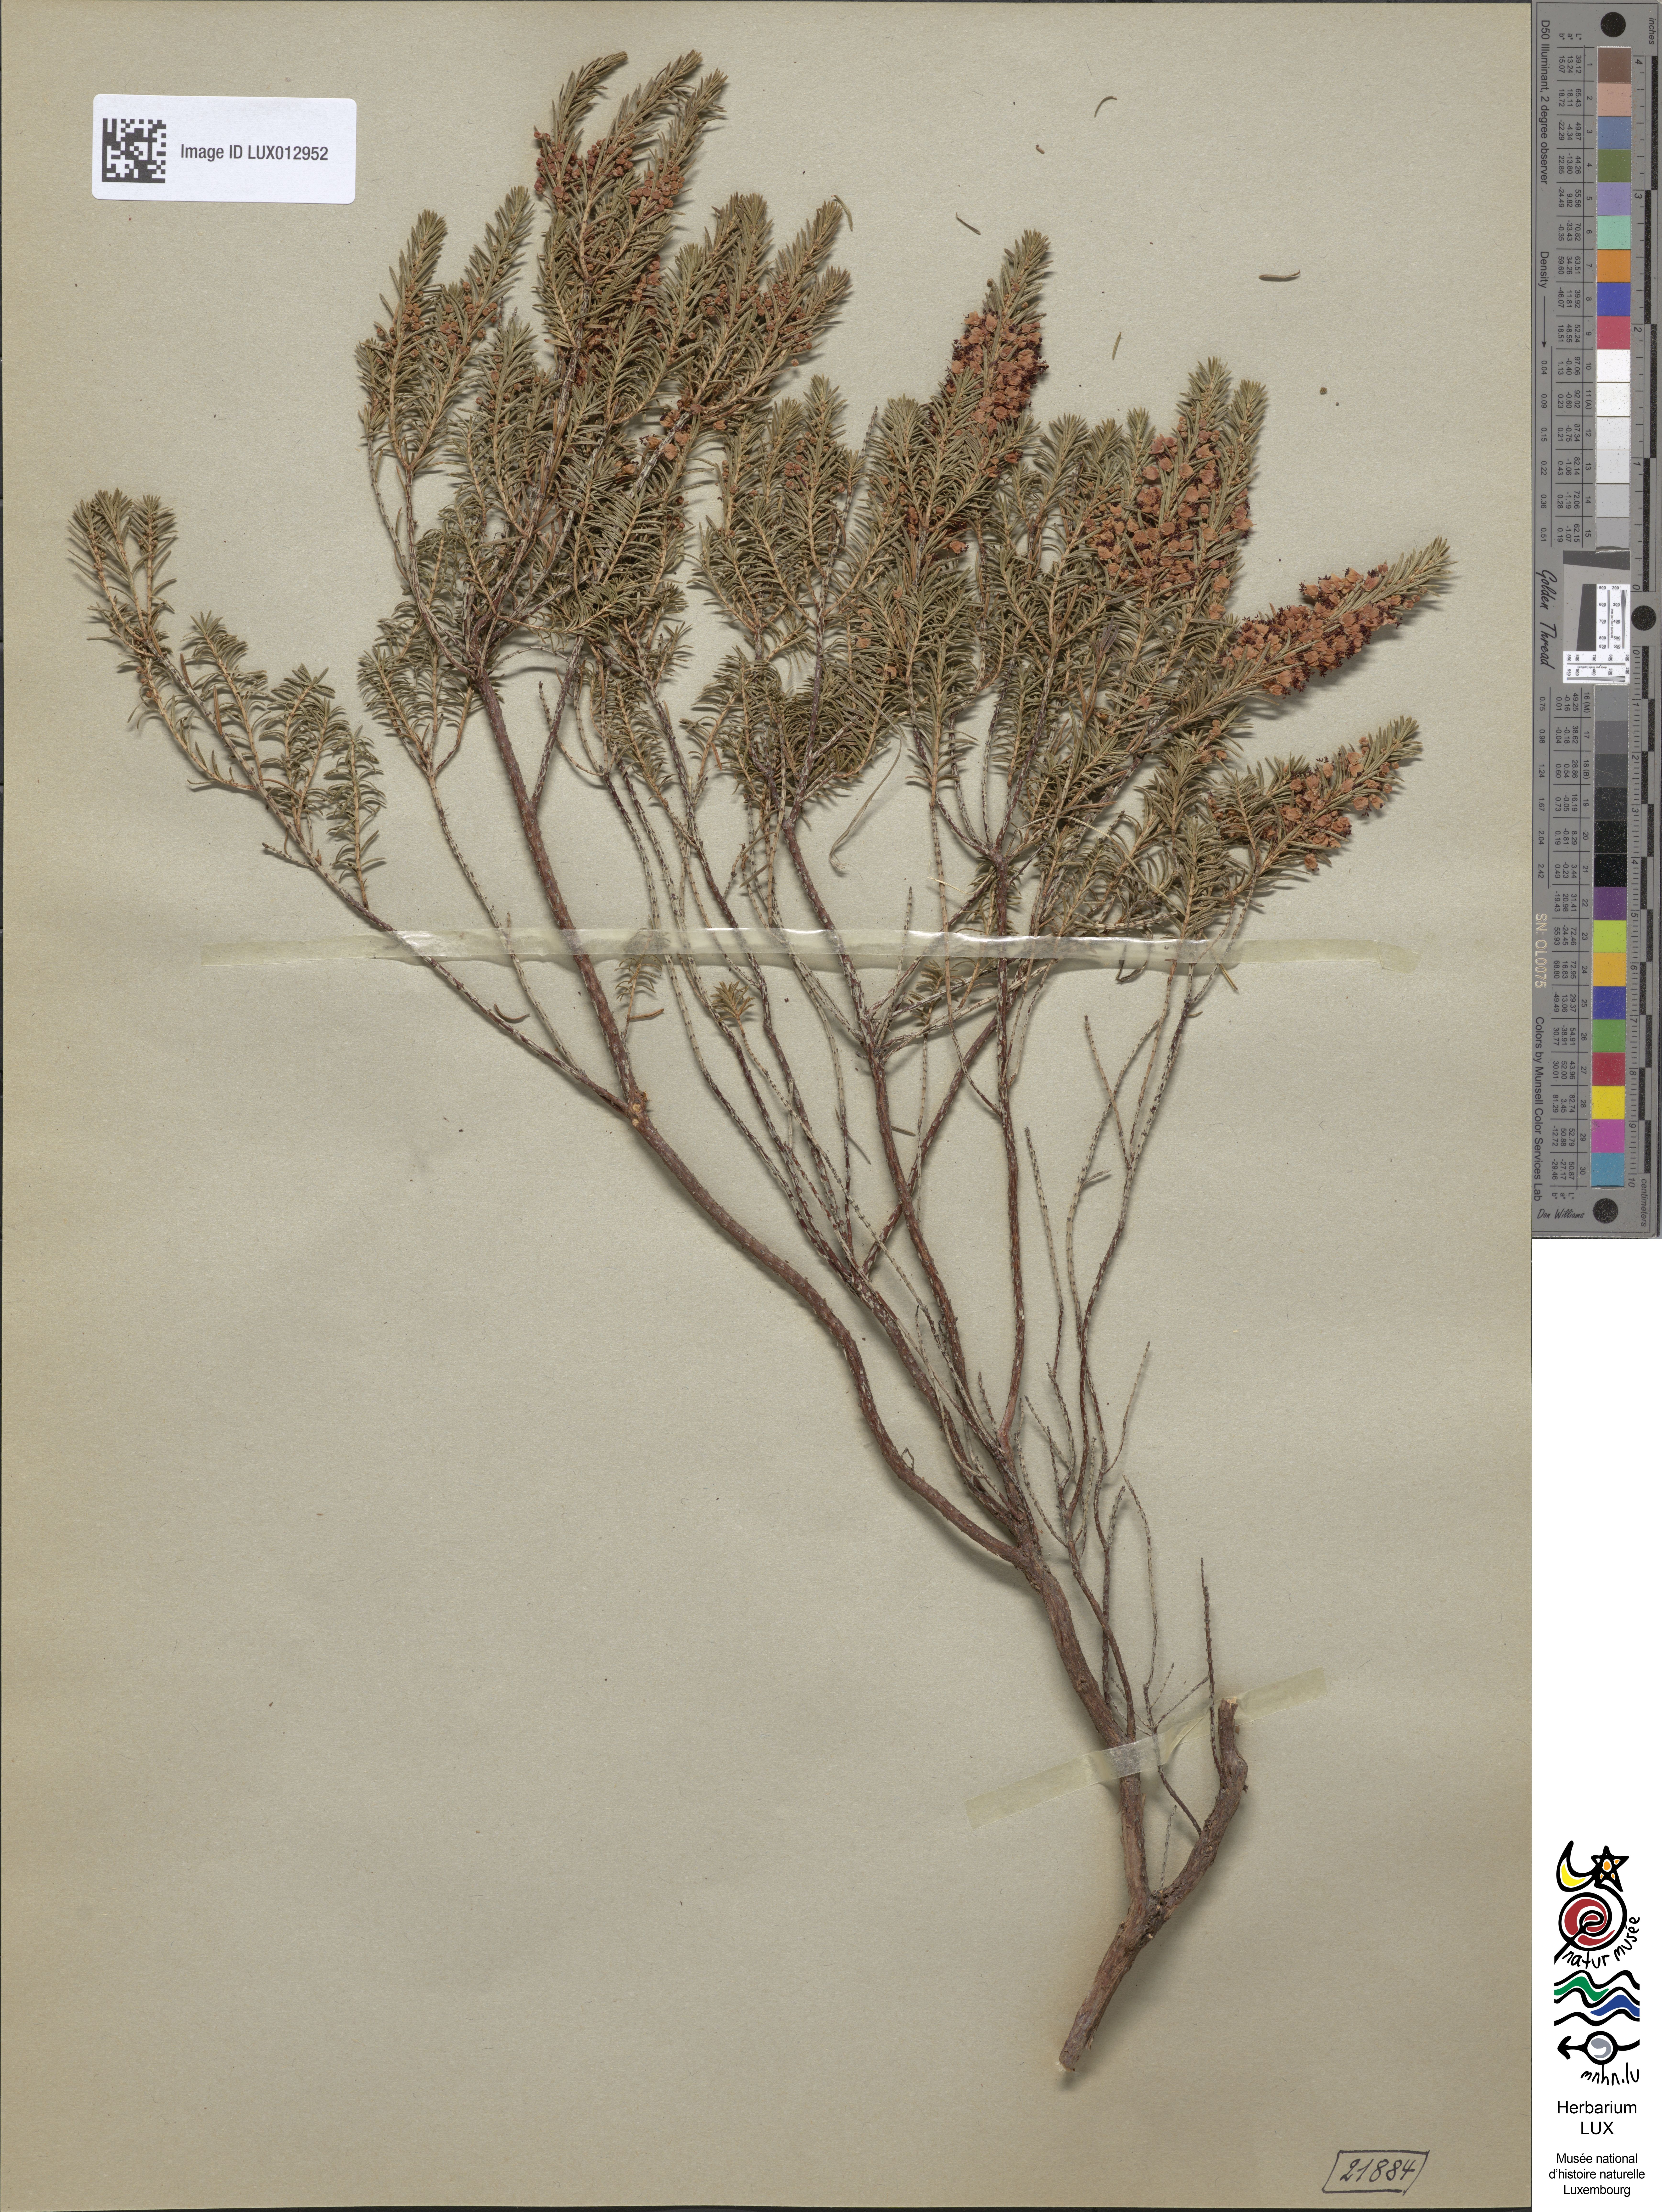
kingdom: Plantae
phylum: Tracheophyta
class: Magnoliopsida
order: Ericales
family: Ericaceae
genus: Erica
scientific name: Erica vagans
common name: Cornish heath
